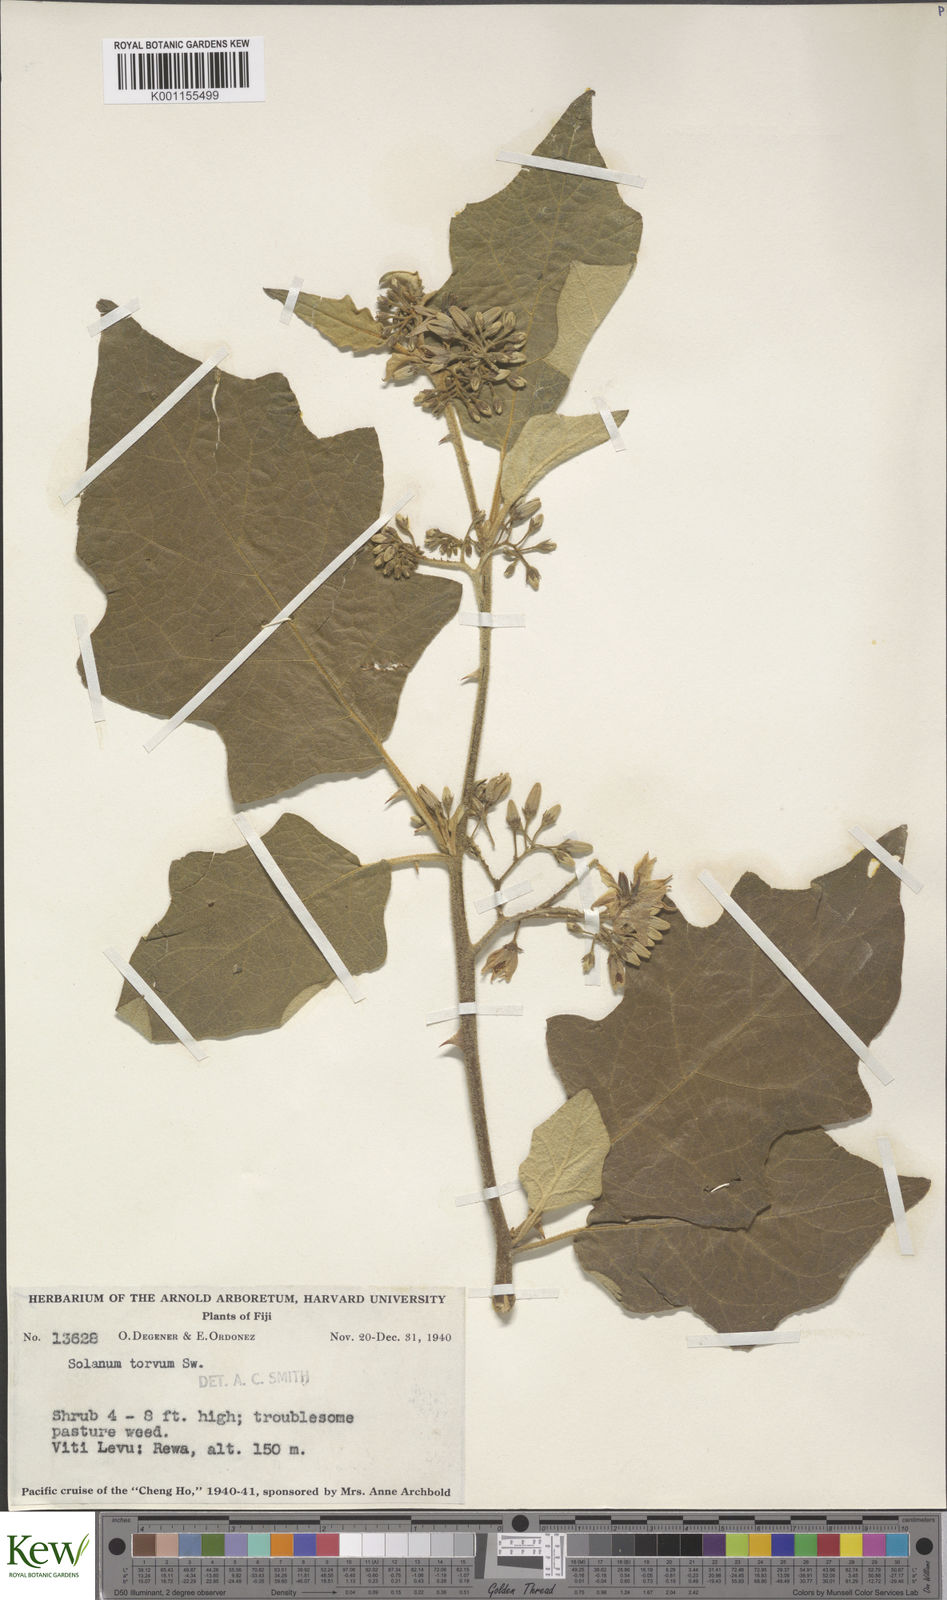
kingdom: Plantae
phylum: Tracheophyta
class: Magnoliopsida
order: Solanales
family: Solanaceae
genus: Solanum
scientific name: Solanum torvum
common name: Turkey berry
